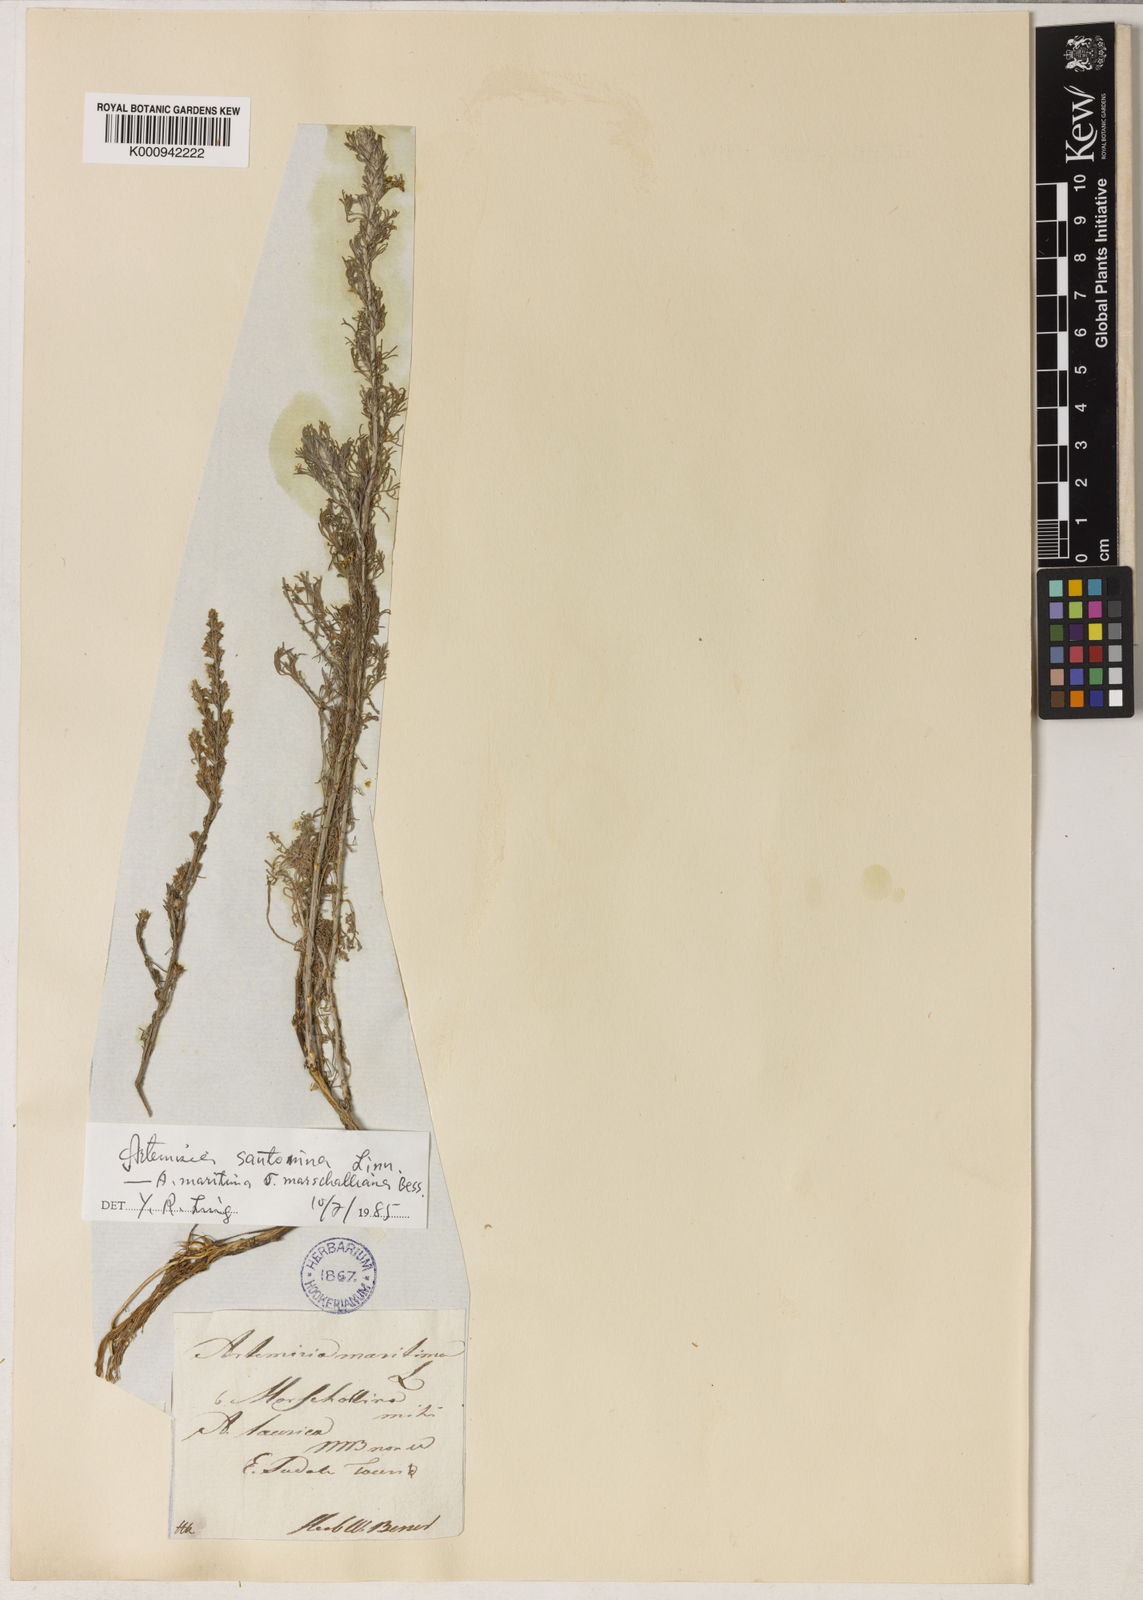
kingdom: Plantae
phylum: Tracheophyta
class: Magnoliopsida
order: Asterales
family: Asteraceae
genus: Artemisia
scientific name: Artemisia taurica
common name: Tauric wormwood
